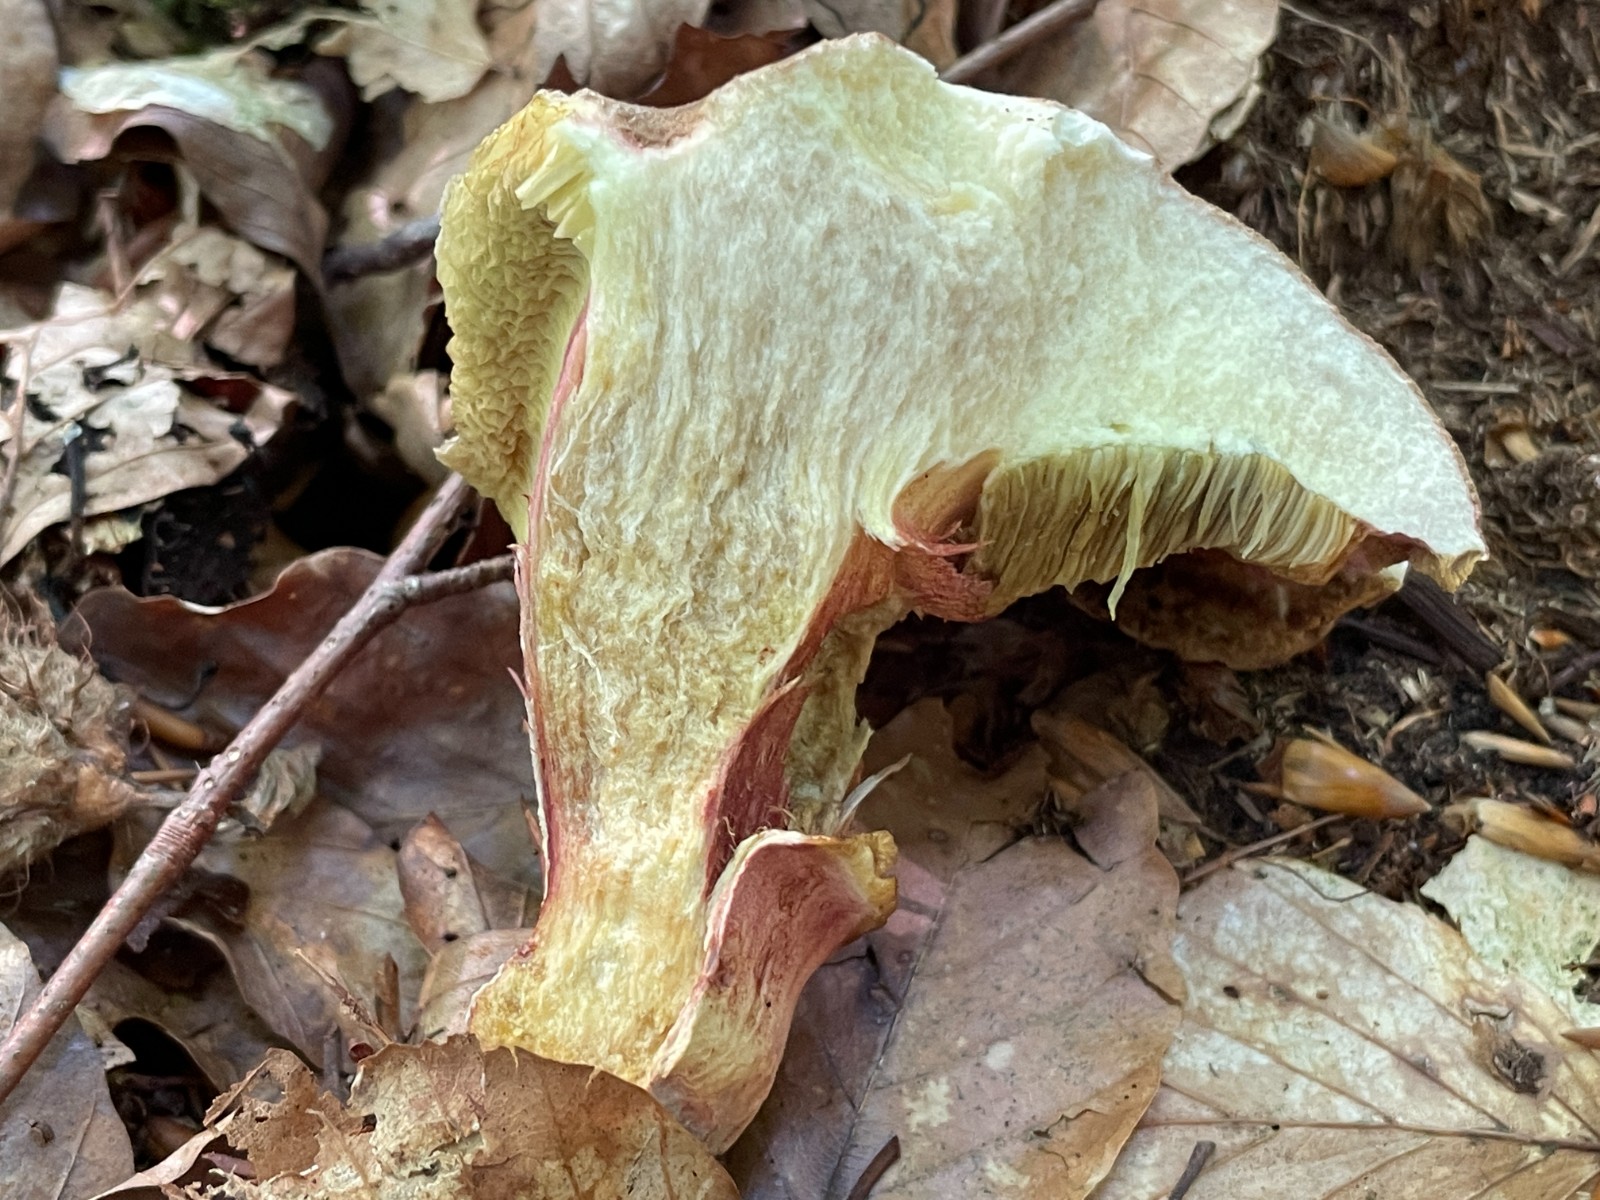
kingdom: Fungi
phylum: Basidiomycota
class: Agaricomycetes
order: Boletales
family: Boletaceae
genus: Xerocomellus
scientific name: Xerocomellus pruinatus
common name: dugget rørhat
